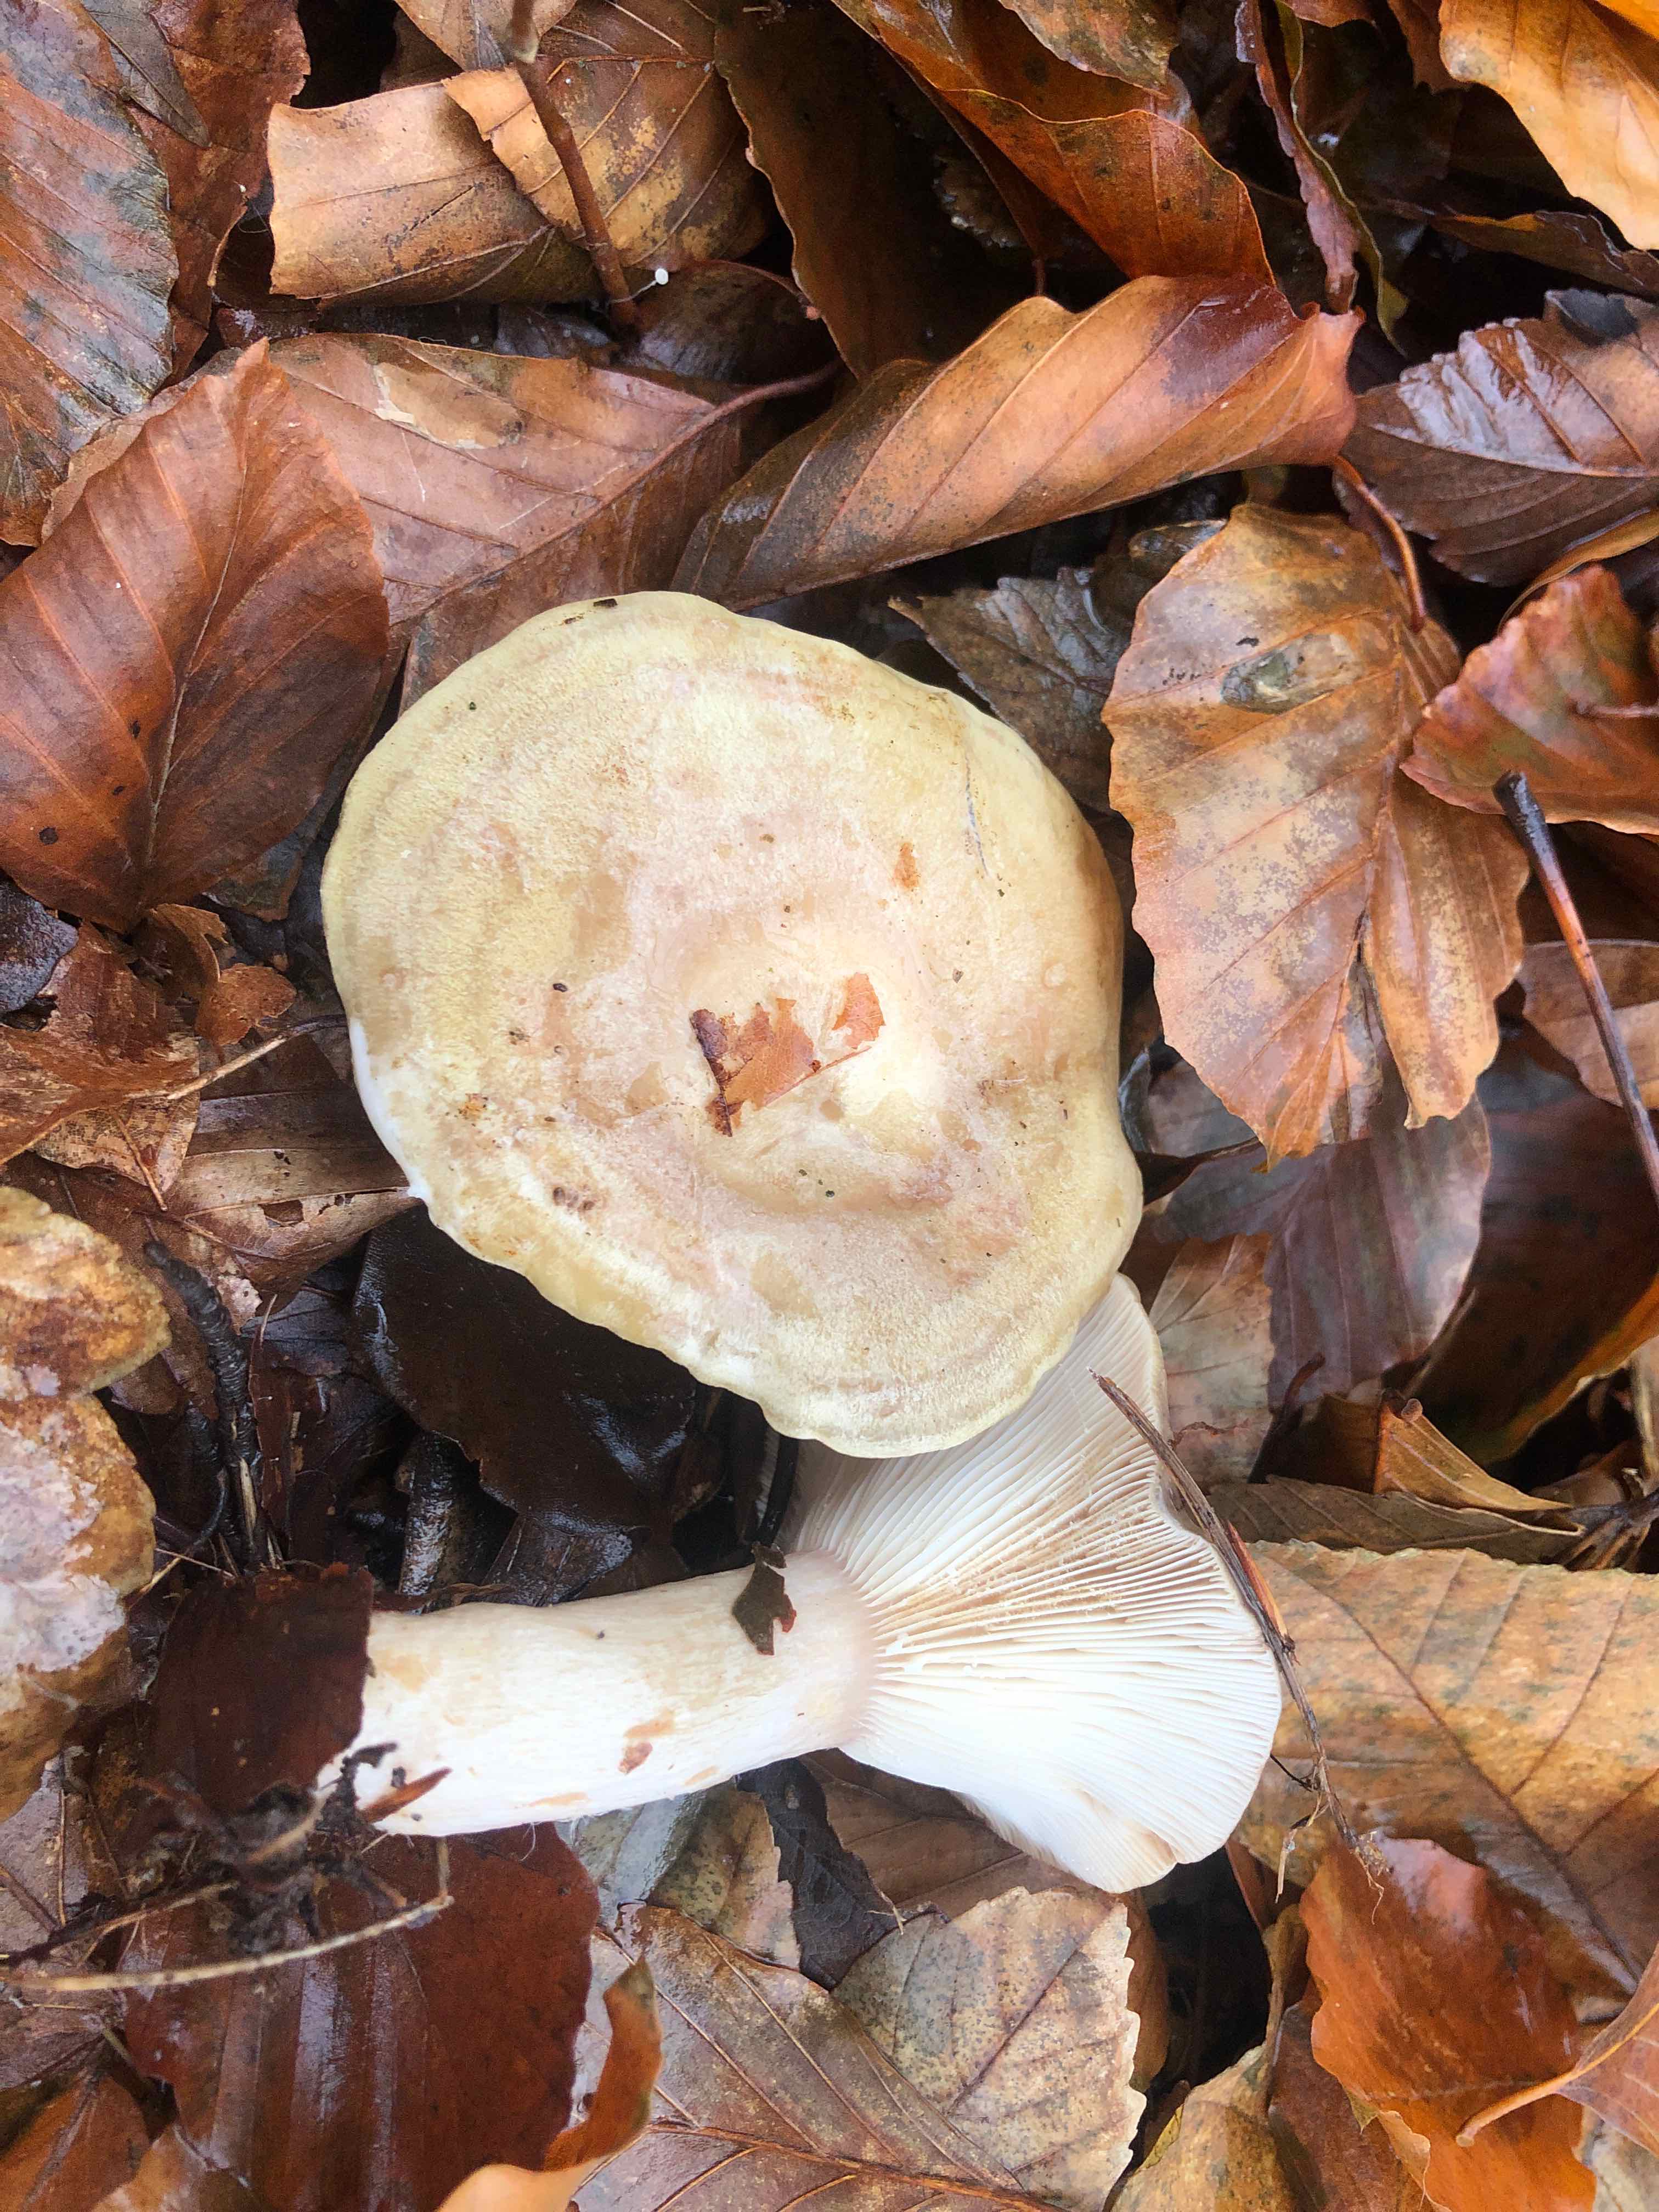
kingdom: Fungi
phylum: Basidiomycota
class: Agaricomycetes
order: Russulales
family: Russulaceae
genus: Lactarius
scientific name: Lactarius blennius
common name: dråbeplettet mælkehat
